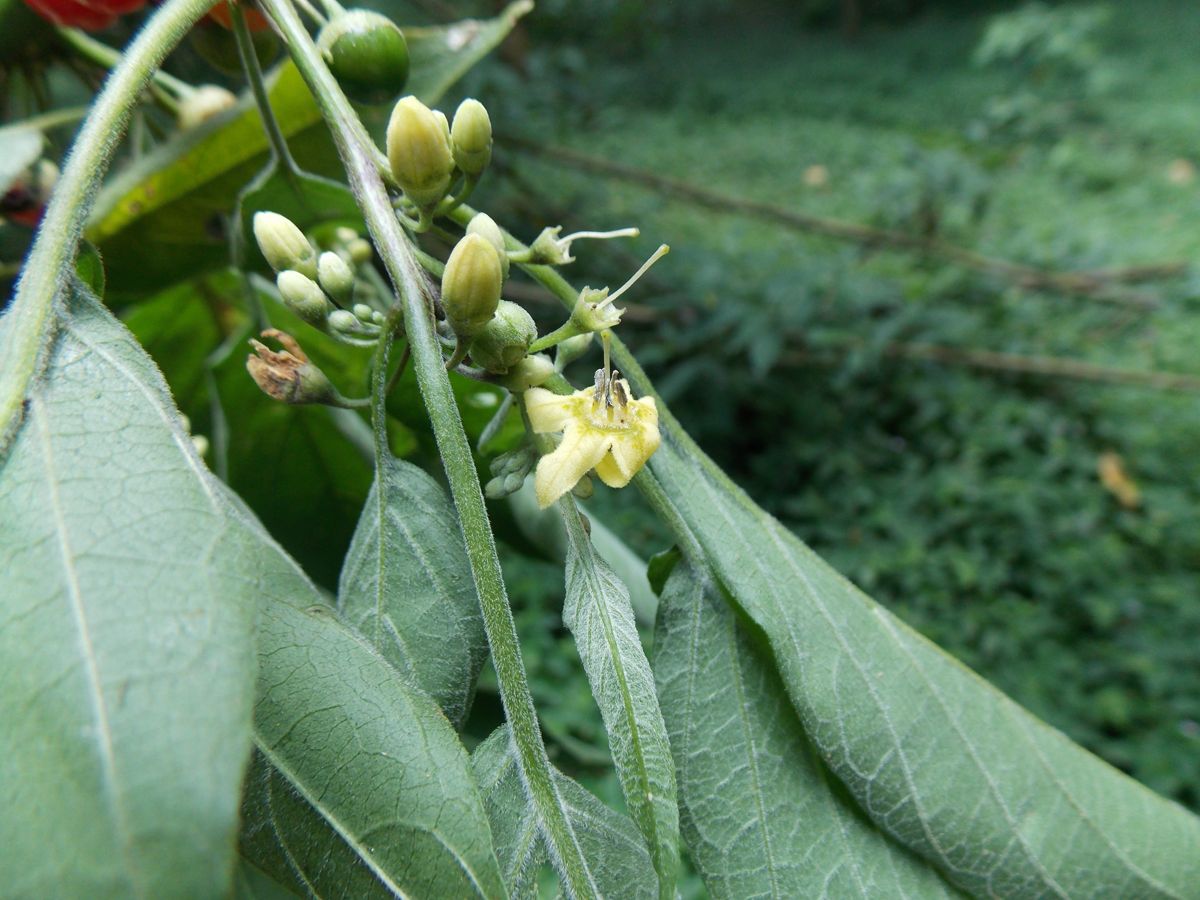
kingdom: Plantae
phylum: Tracheophyta
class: Magnoliopsida
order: Solanales
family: Solanaceae
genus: Brachistus
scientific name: Brachistus stramonifolius
